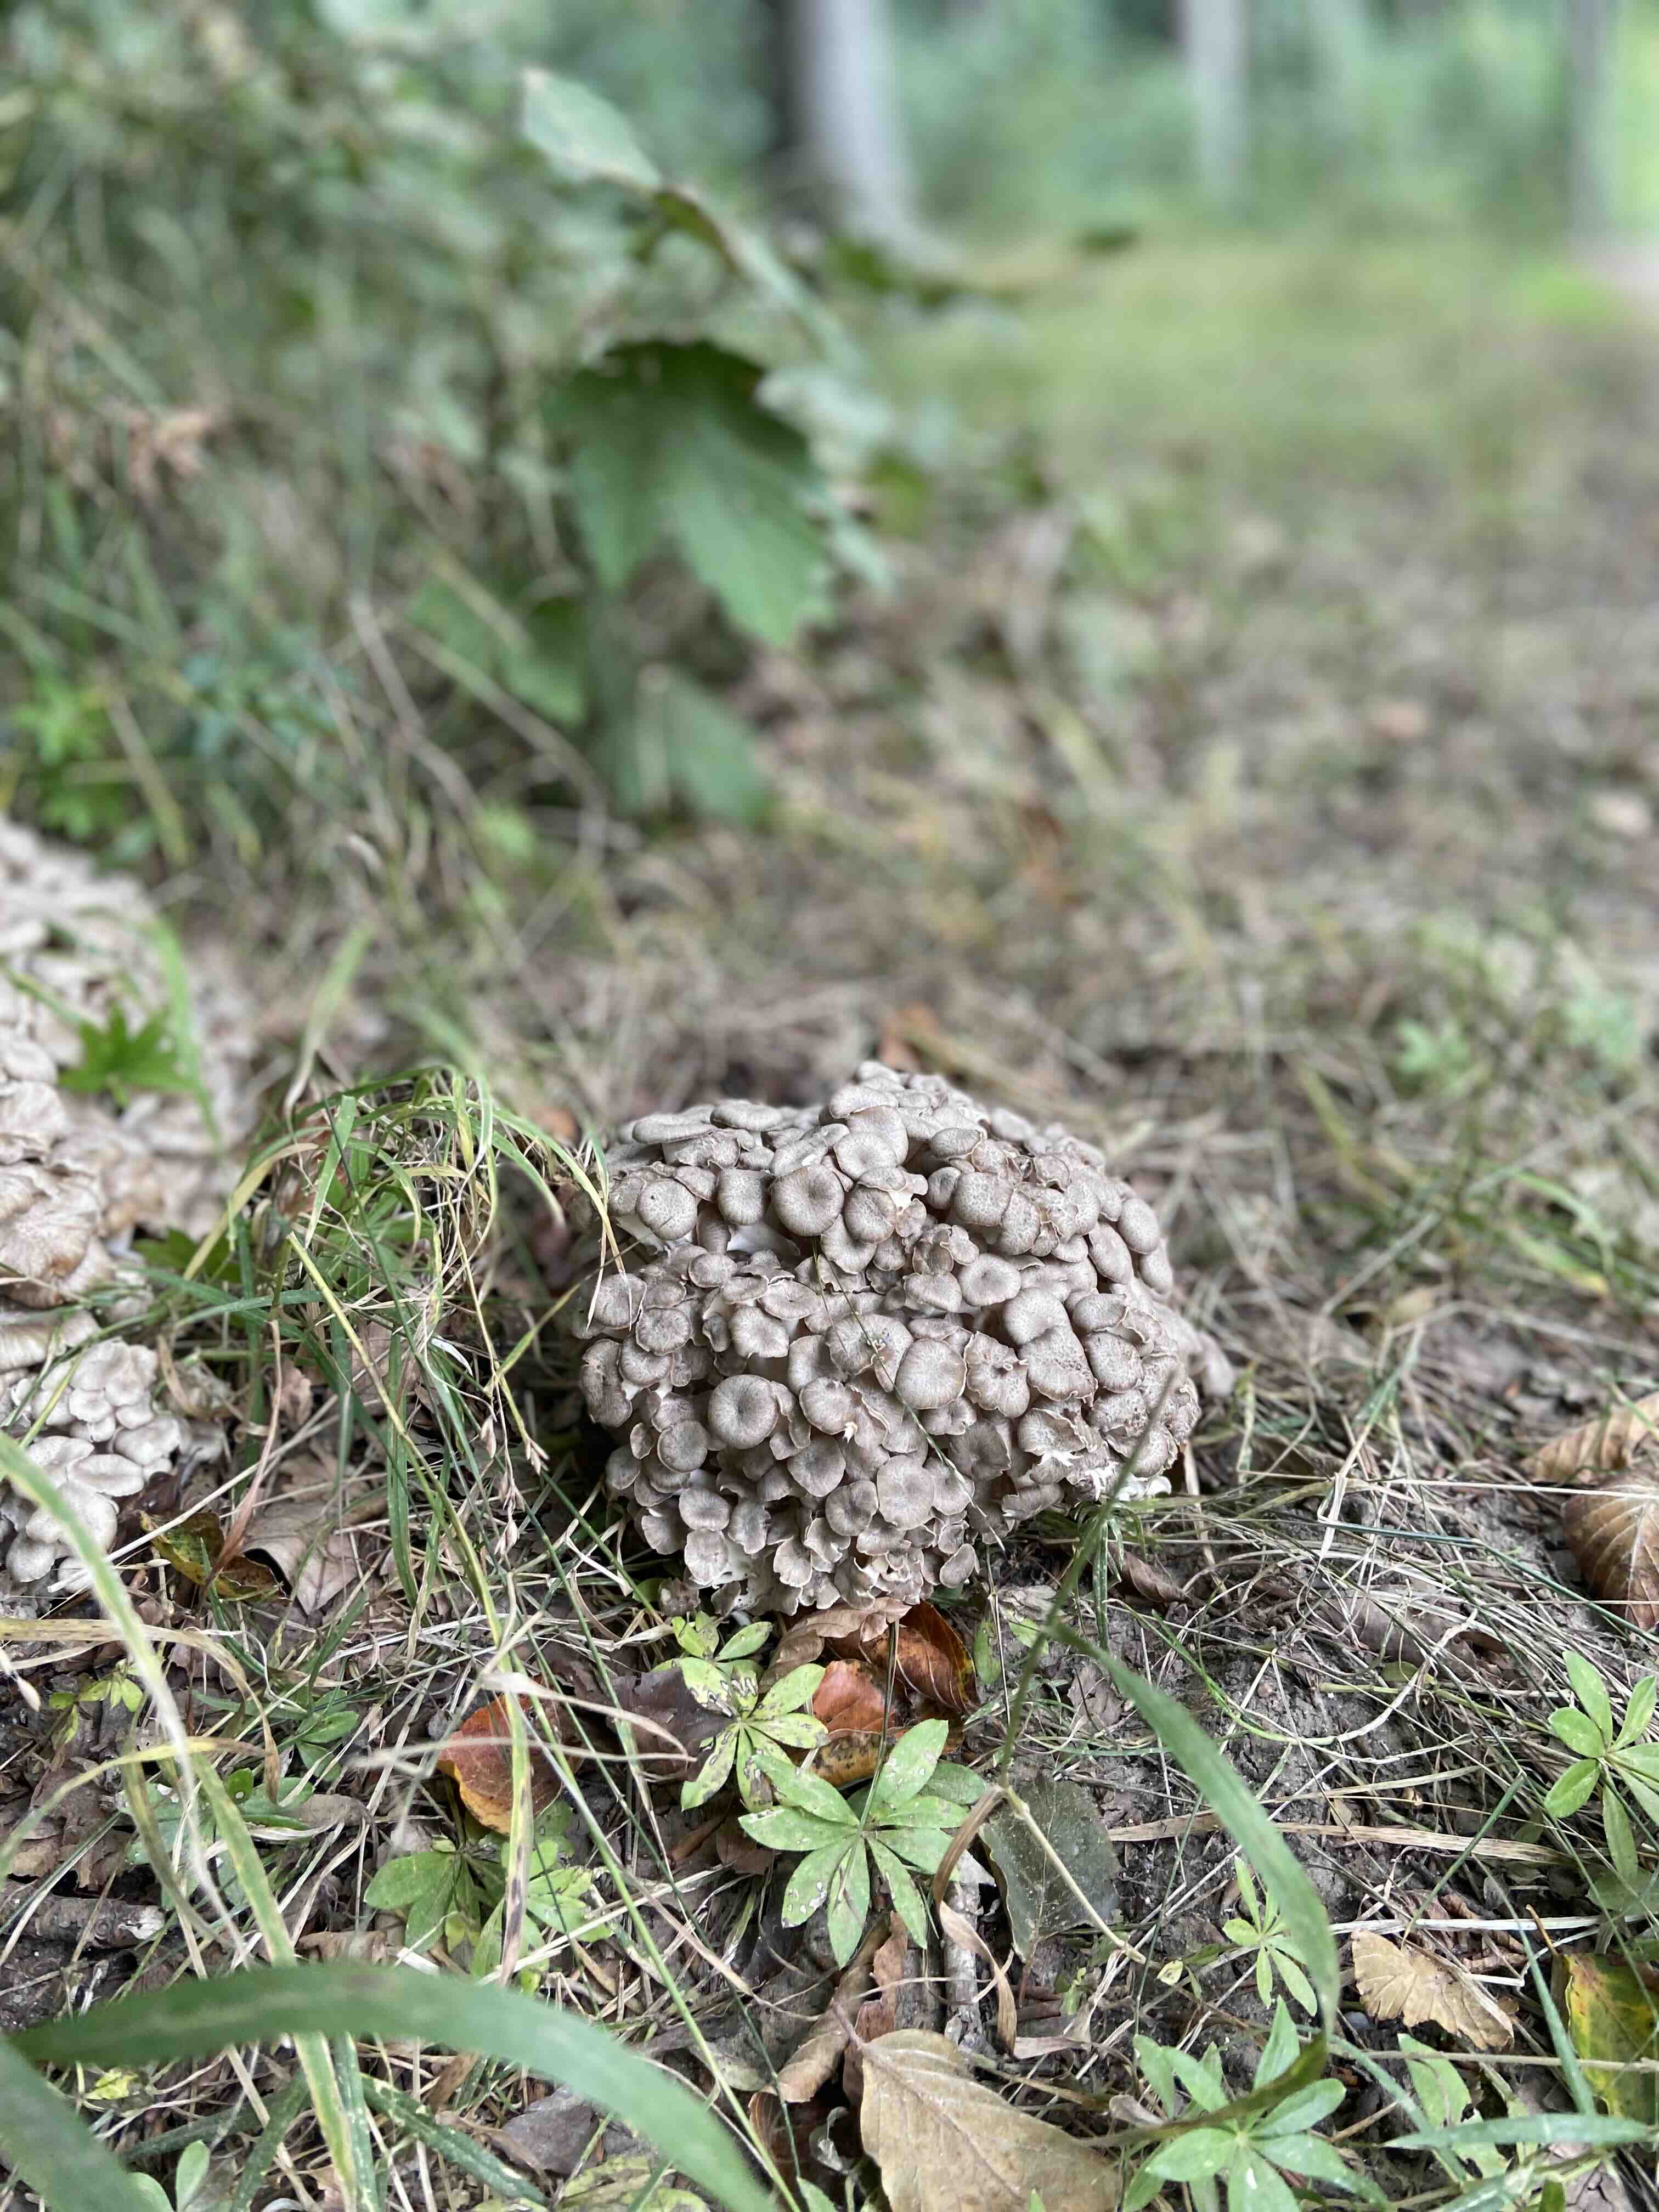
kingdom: Fungi
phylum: Basidiomycota
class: Agaricomycetes
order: Polyporales
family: Polyporaceae
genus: Polyporus
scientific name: Polyporus umbellatus
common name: skærmformet stilkporesvamp
